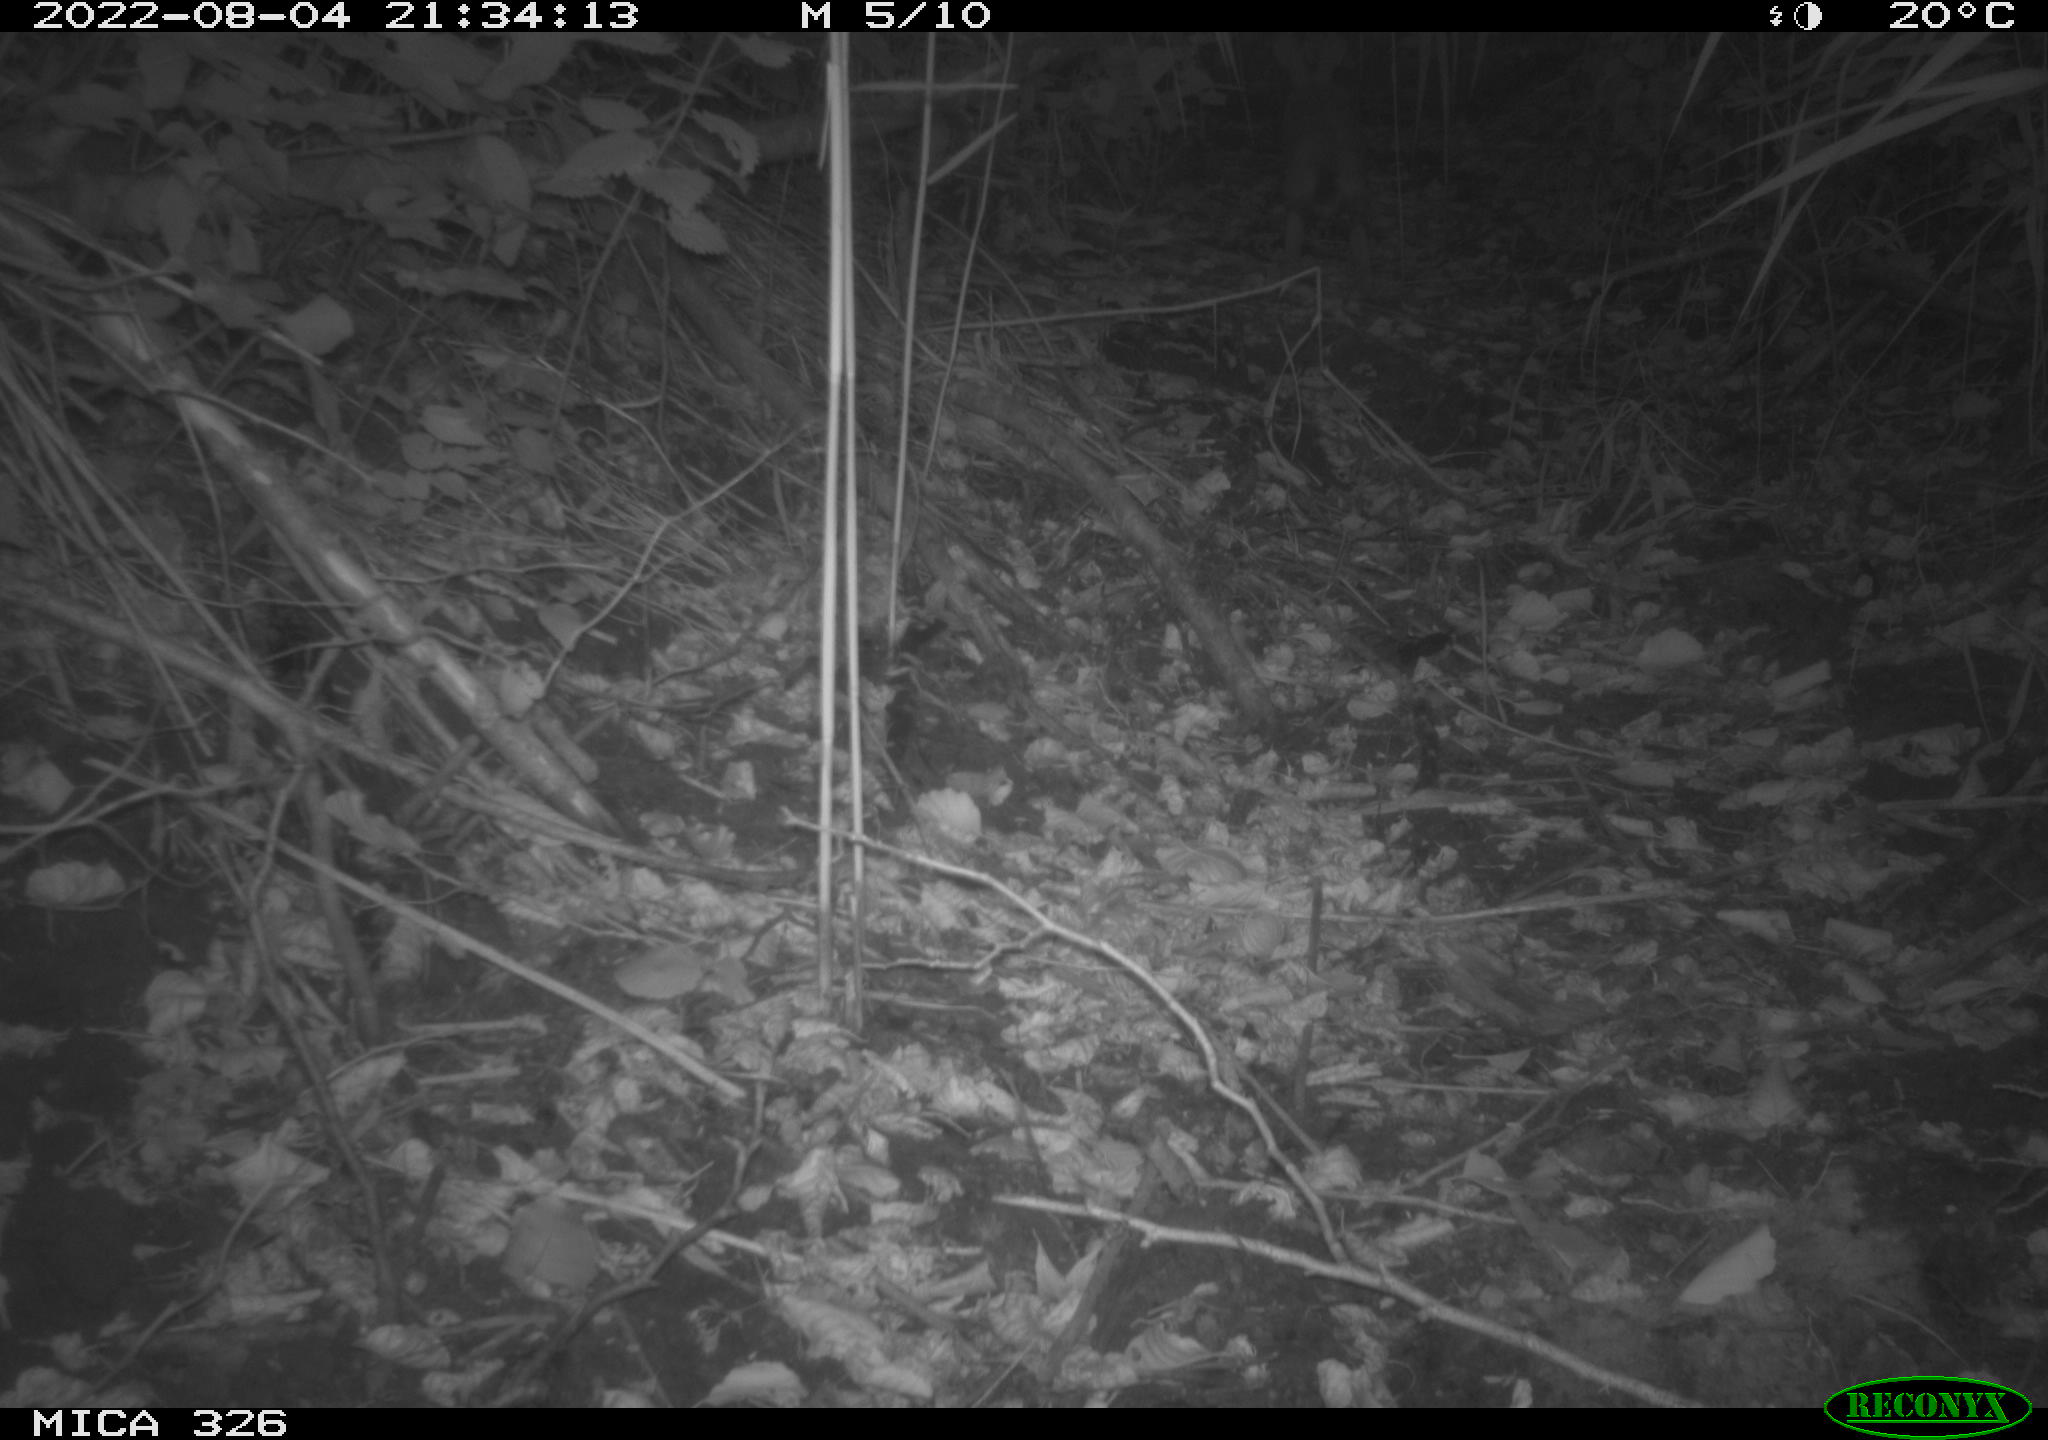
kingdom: Animalia
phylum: Chordata
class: Mammalia
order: Lagomorpha
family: Leporidae
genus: Lepus
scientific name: Lepus europaeus
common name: European hare
